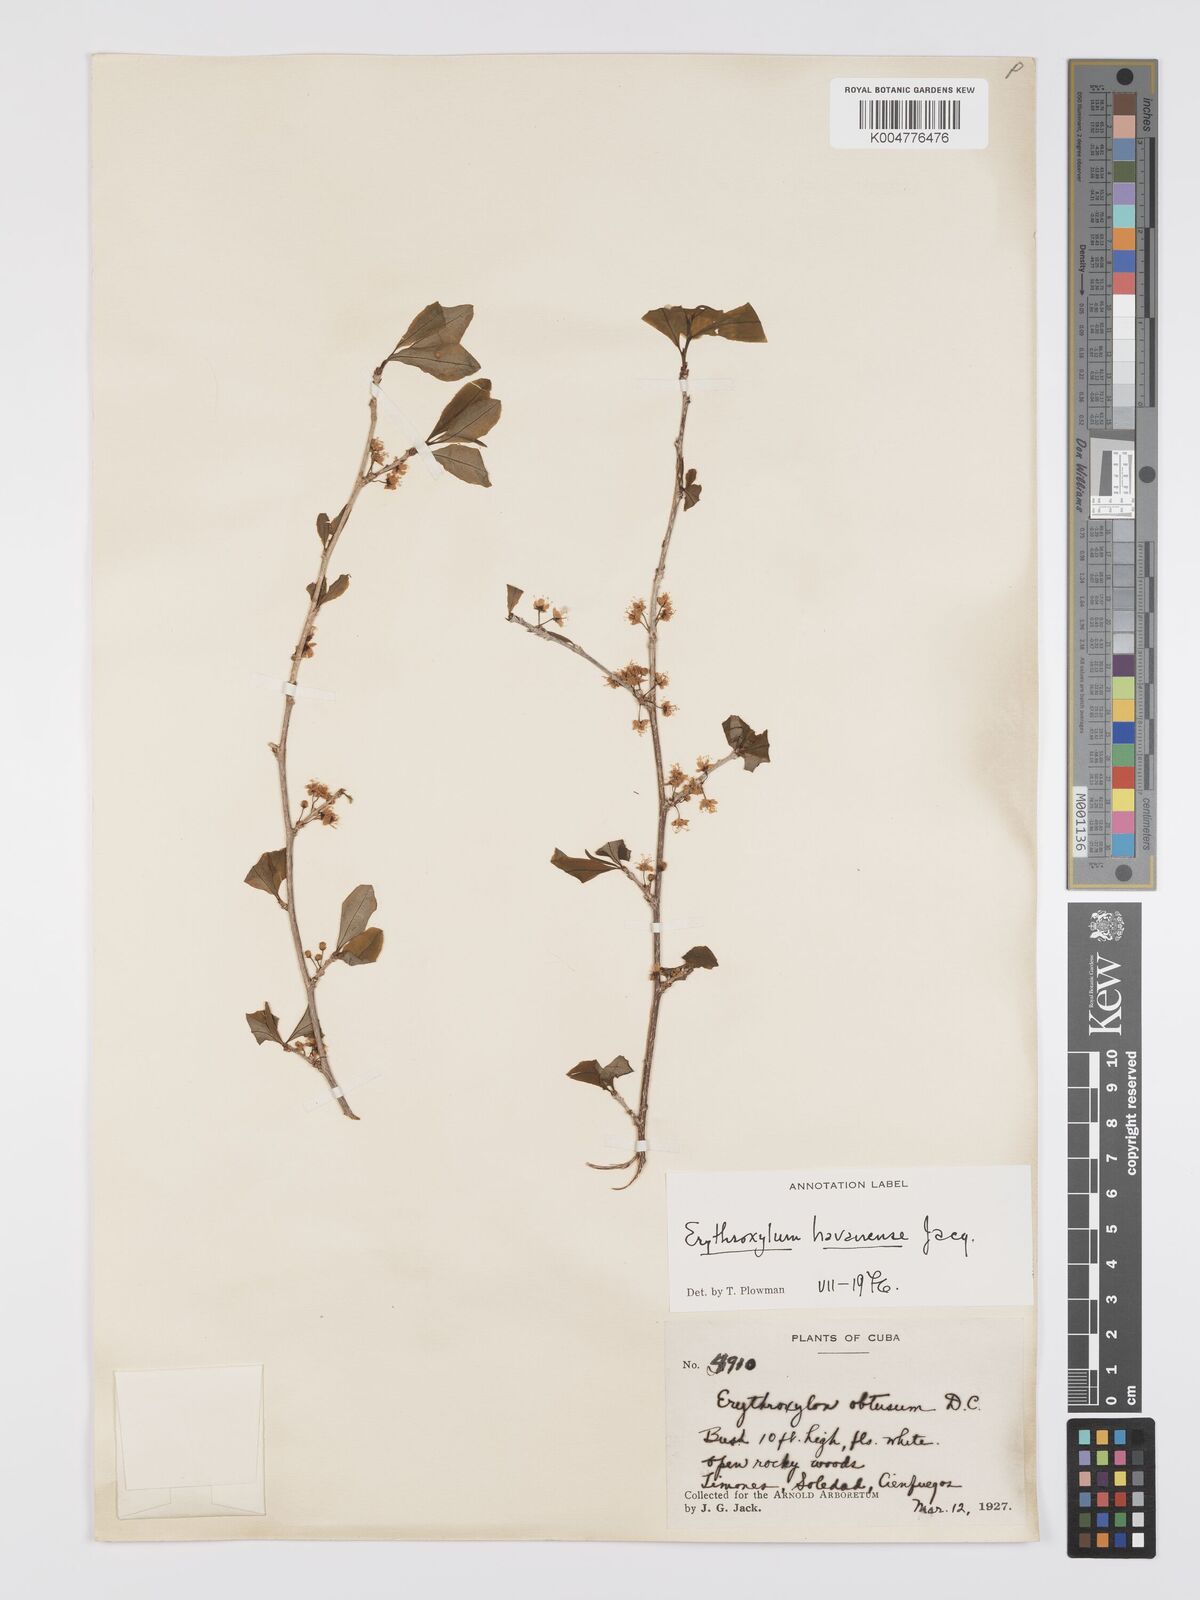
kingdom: Plantae
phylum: Tracheophyta
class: Magnoliopsida
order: Malpighiales
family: Erythroxylaceae
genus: Erythroxylum
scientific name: Erythroxylum
